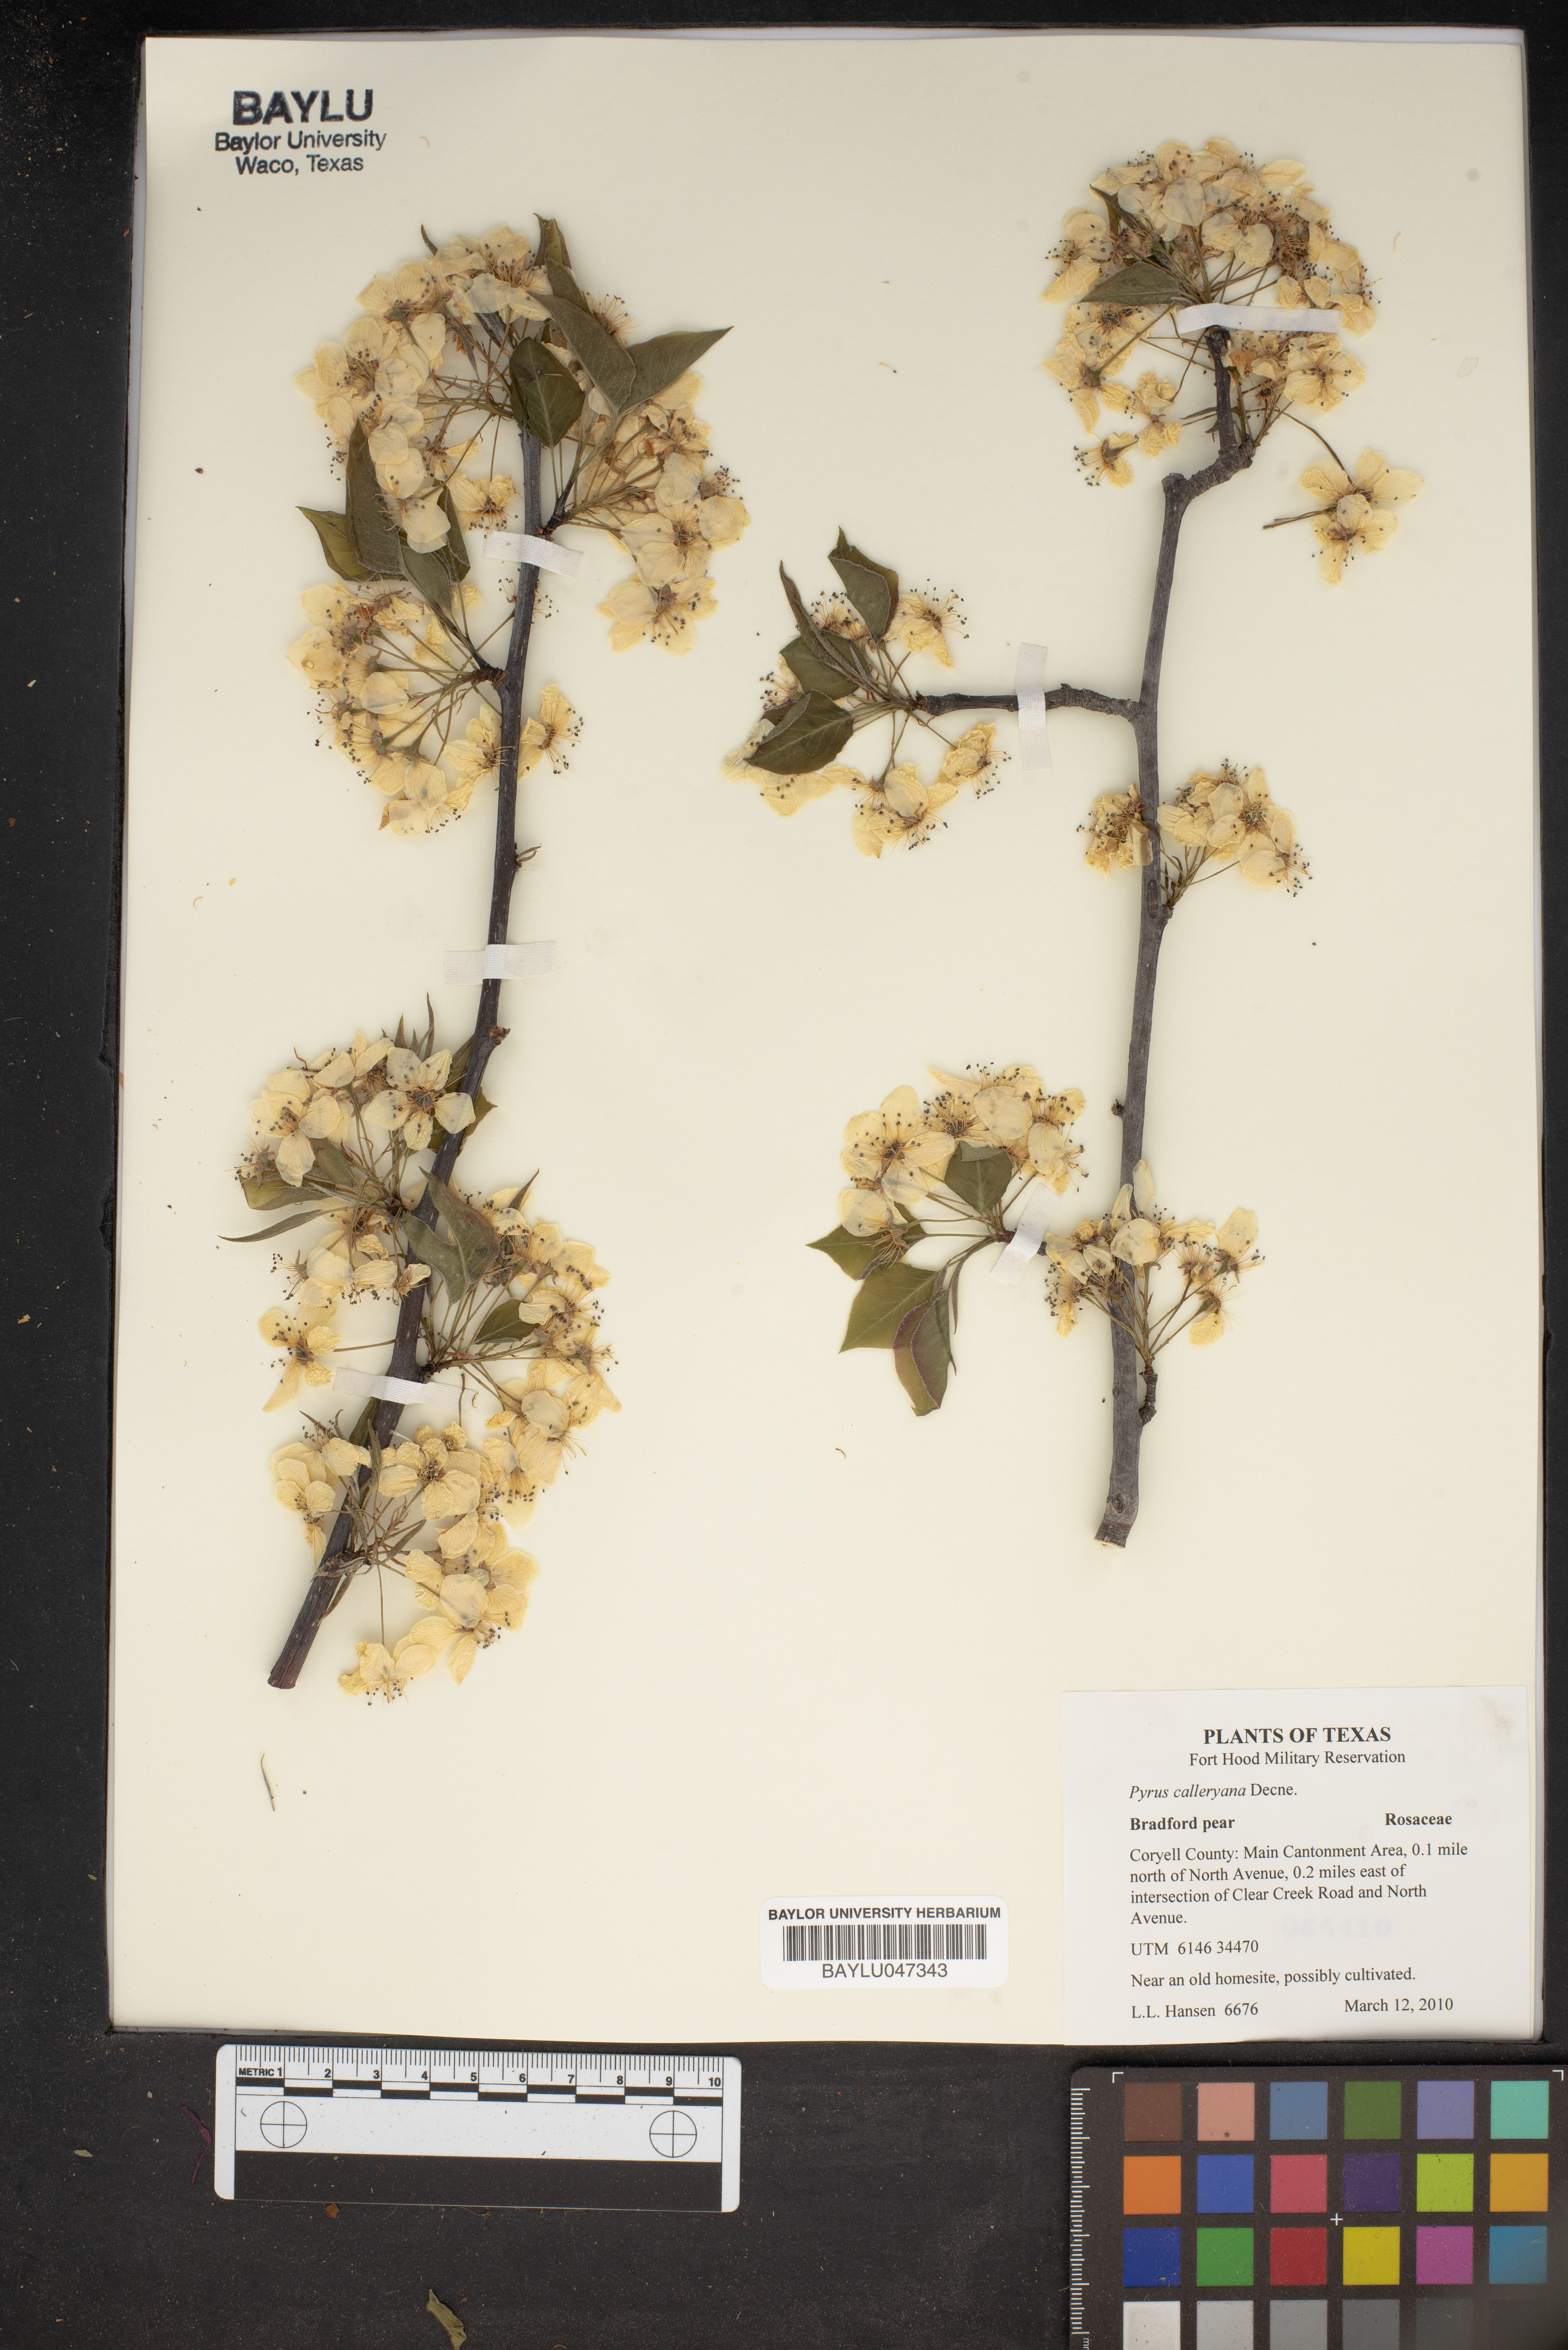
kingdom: Plantae
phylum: Tracheophyta
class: Magnoliopsida
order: Rosales
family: Rosaceae
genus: Pyrus
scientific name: Pyrus calleryana
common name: Callery pear
